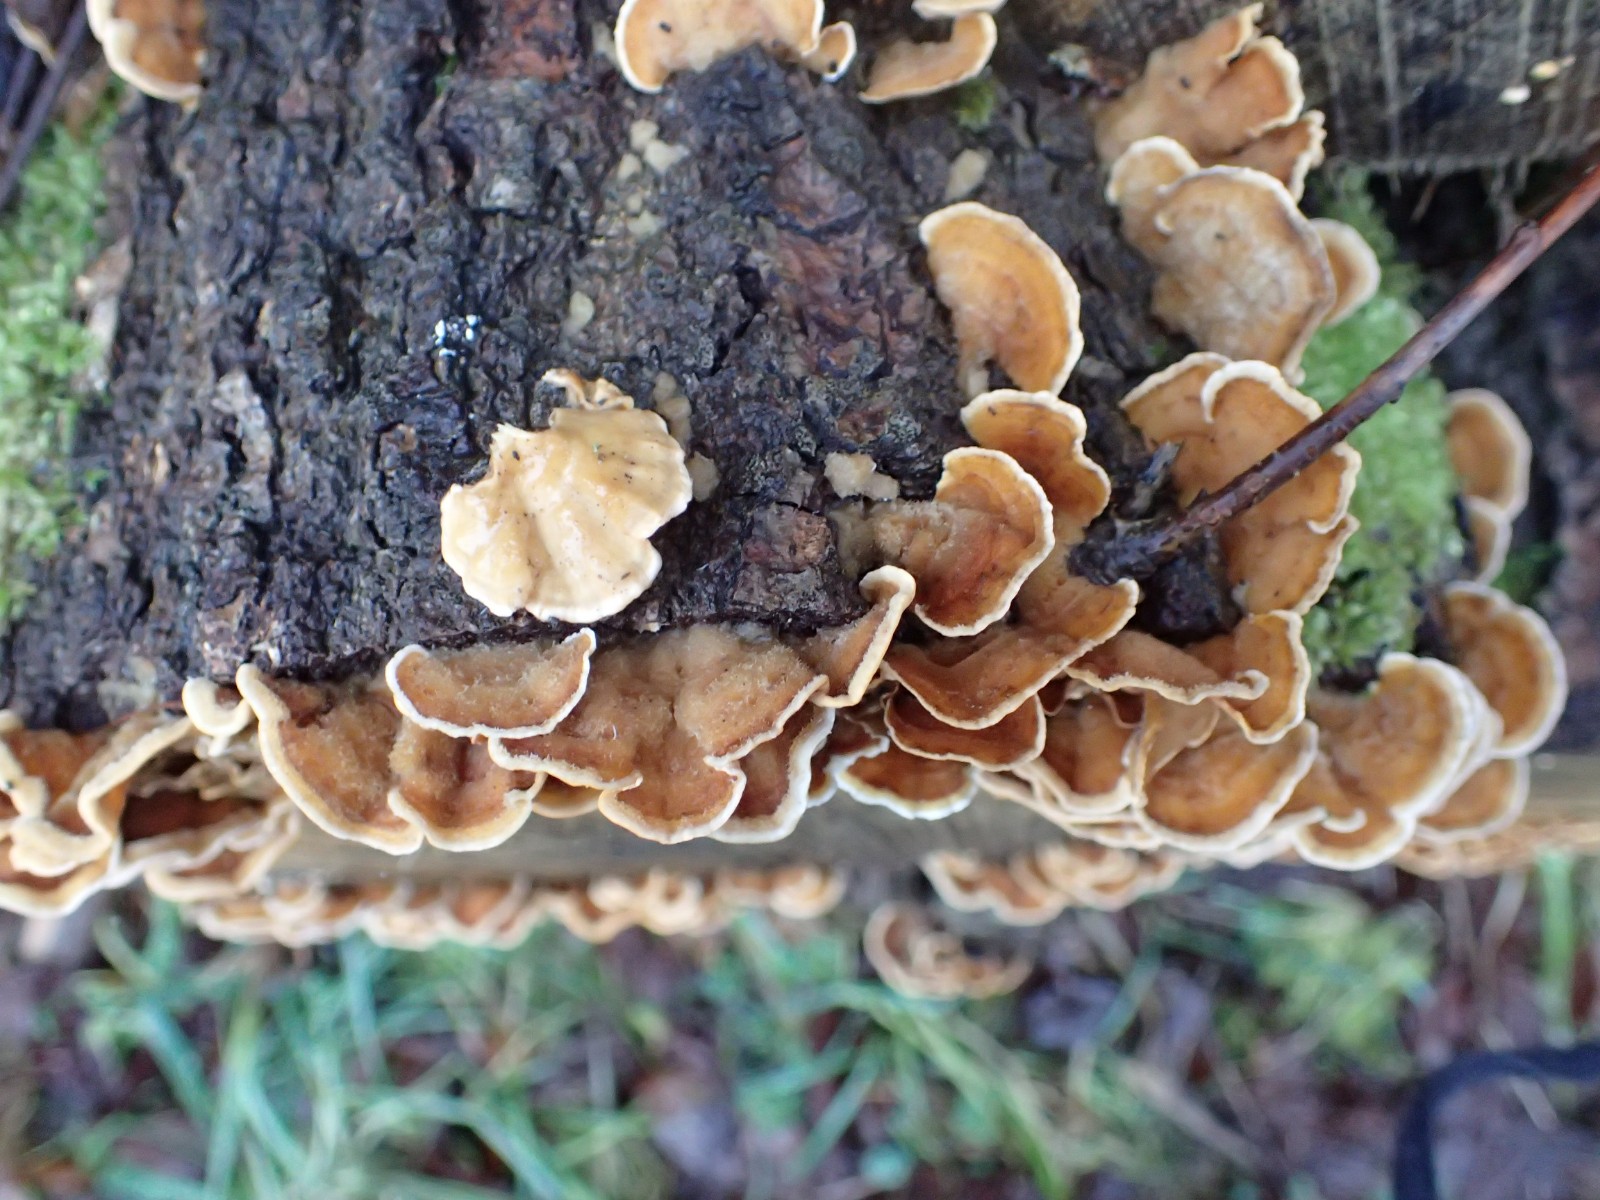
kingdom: Fungi
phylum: Basidiomycota
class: Agaricomycetes
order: Russulales
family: Stereaceae
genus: Stereum
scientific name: Stereum subtomentosum
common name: smuk lædersvamp
